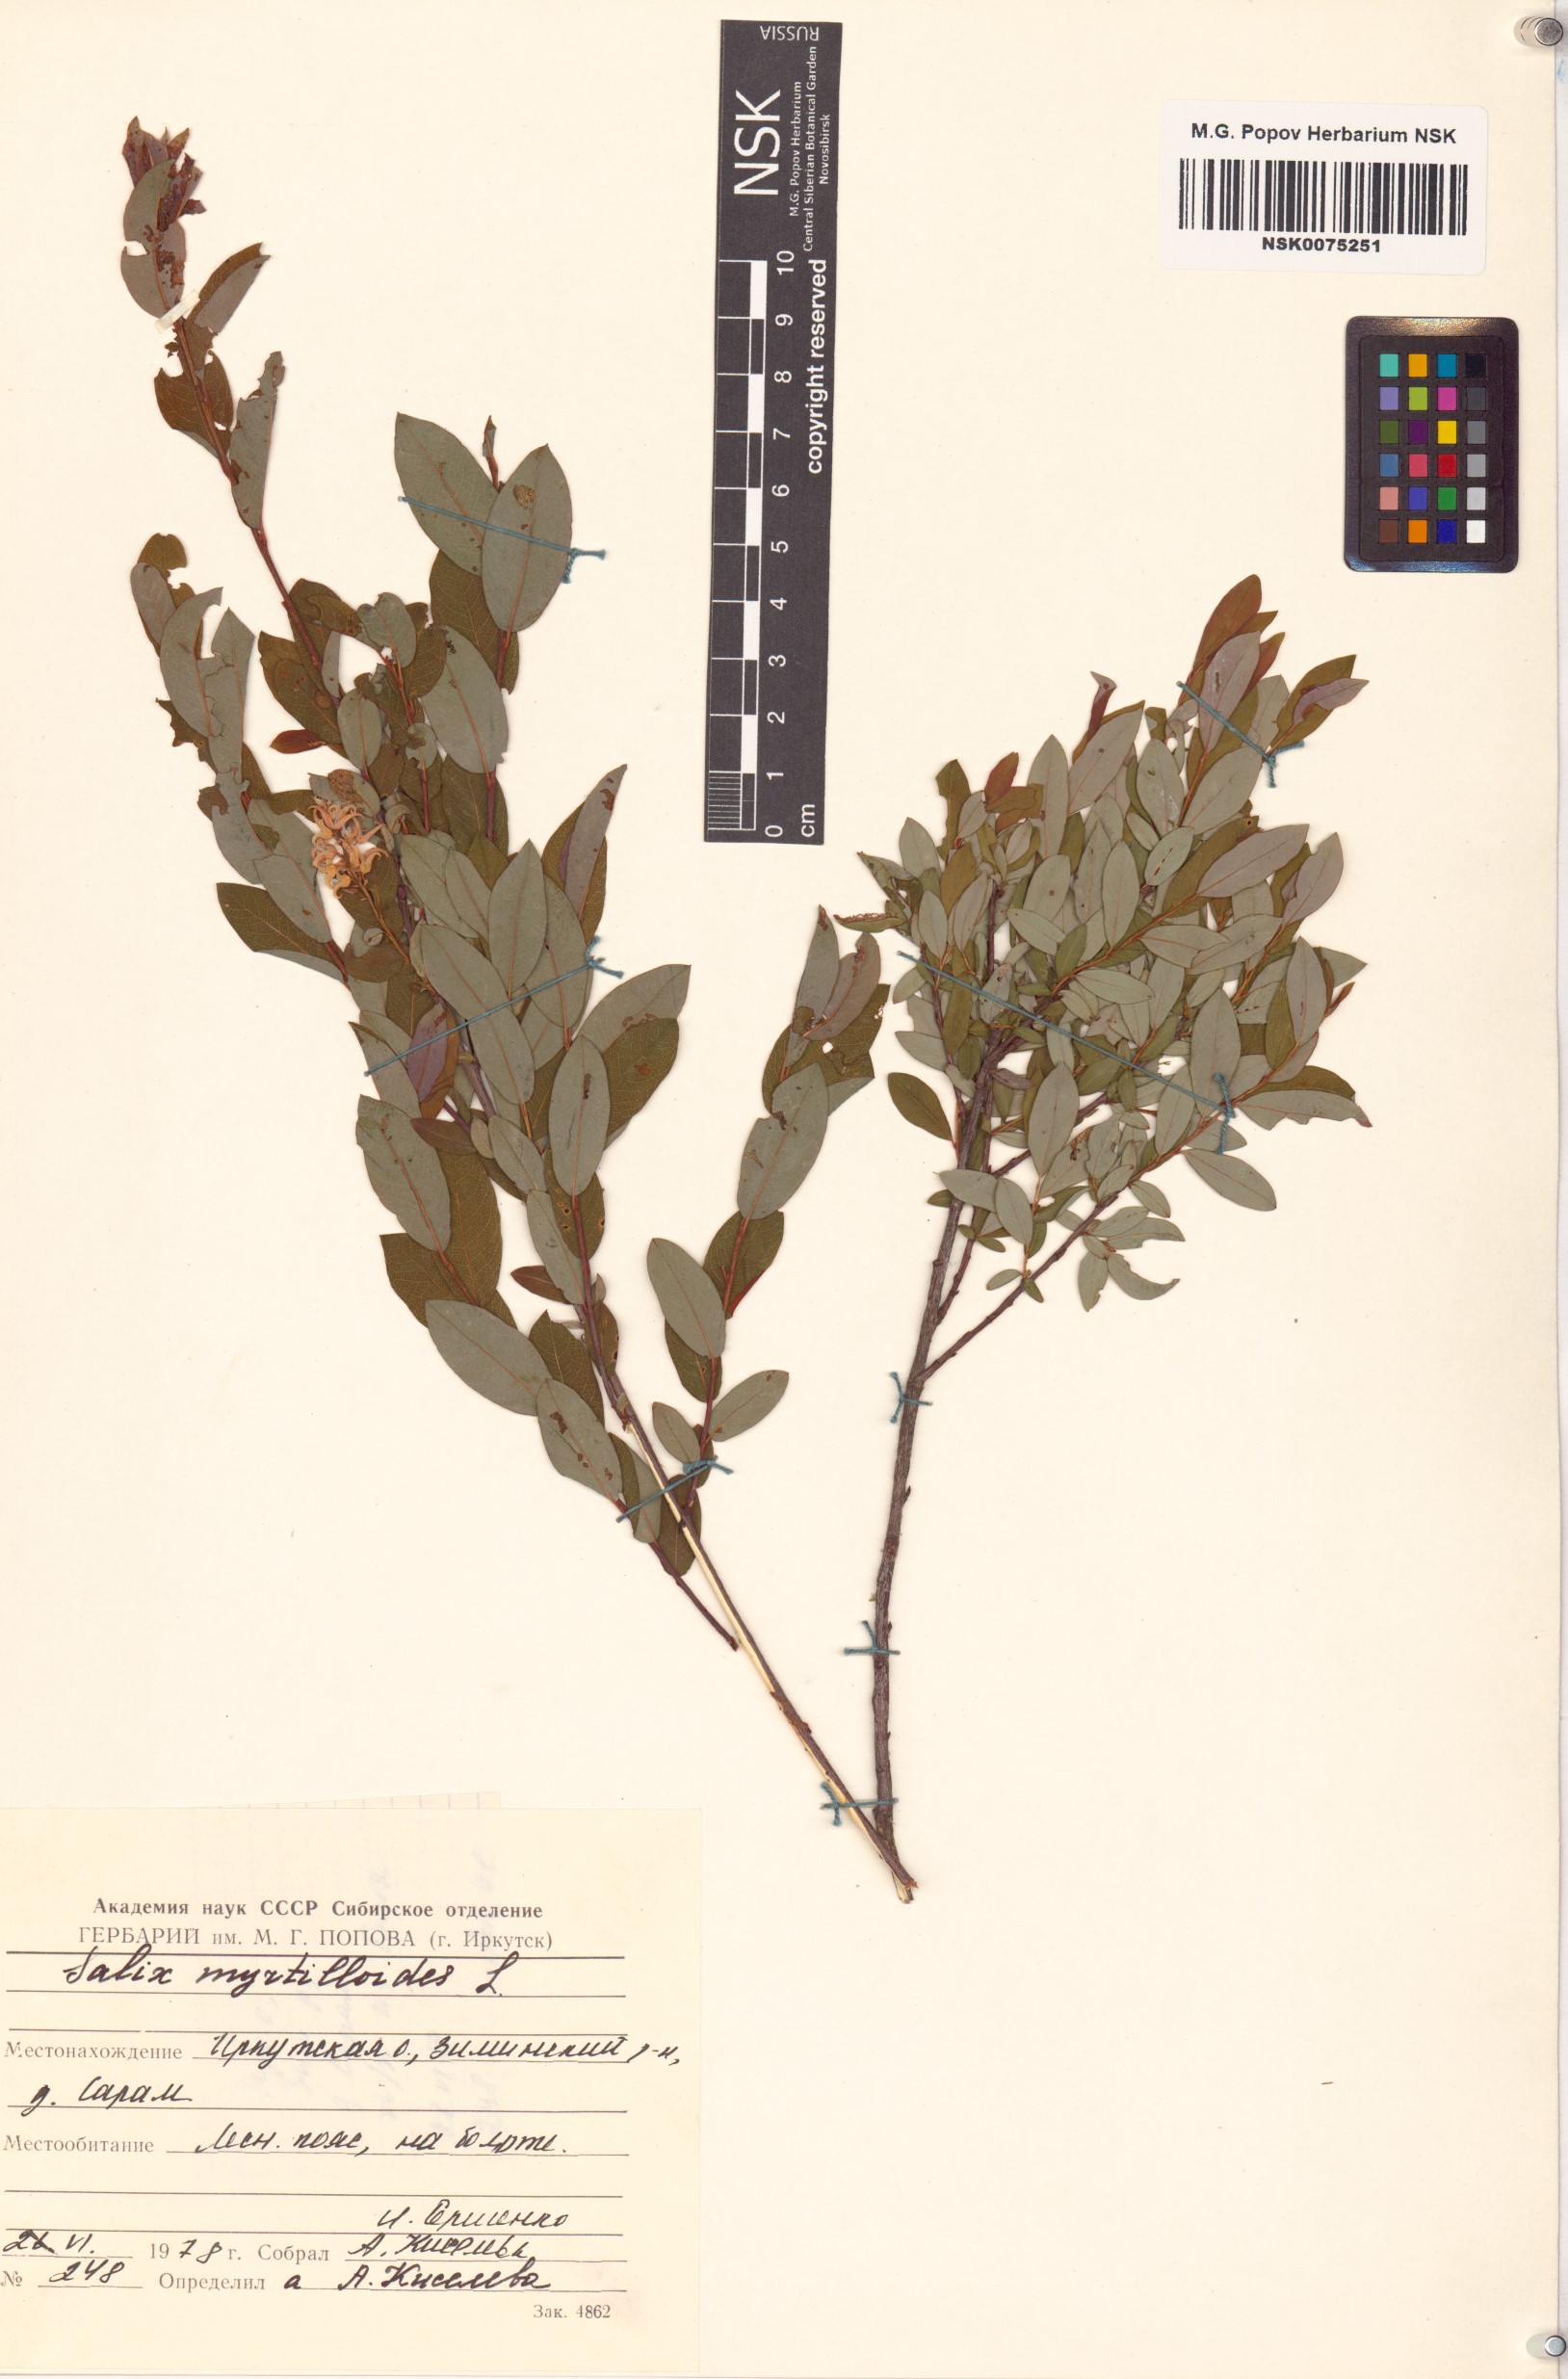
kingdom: Plantae
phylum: Tracheophyta
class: Magnoliopsida
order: Malpighiales
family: Salicaceae
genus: Salix
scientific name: Salix myrtilloides
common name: Myrtle-leaved willow
